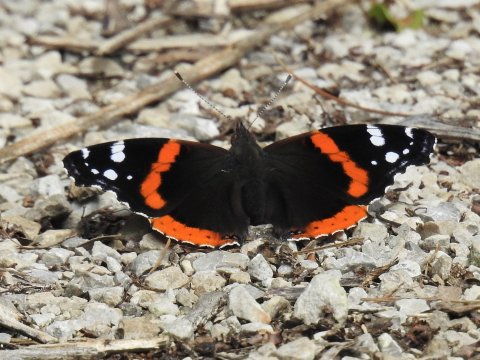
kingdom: Animalia
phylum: Arthropoda
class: Insecta
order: Lepidoptera
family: Nymphalidae
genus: Vanessa
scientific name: Vanessa atalanta
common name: Red Admiral
